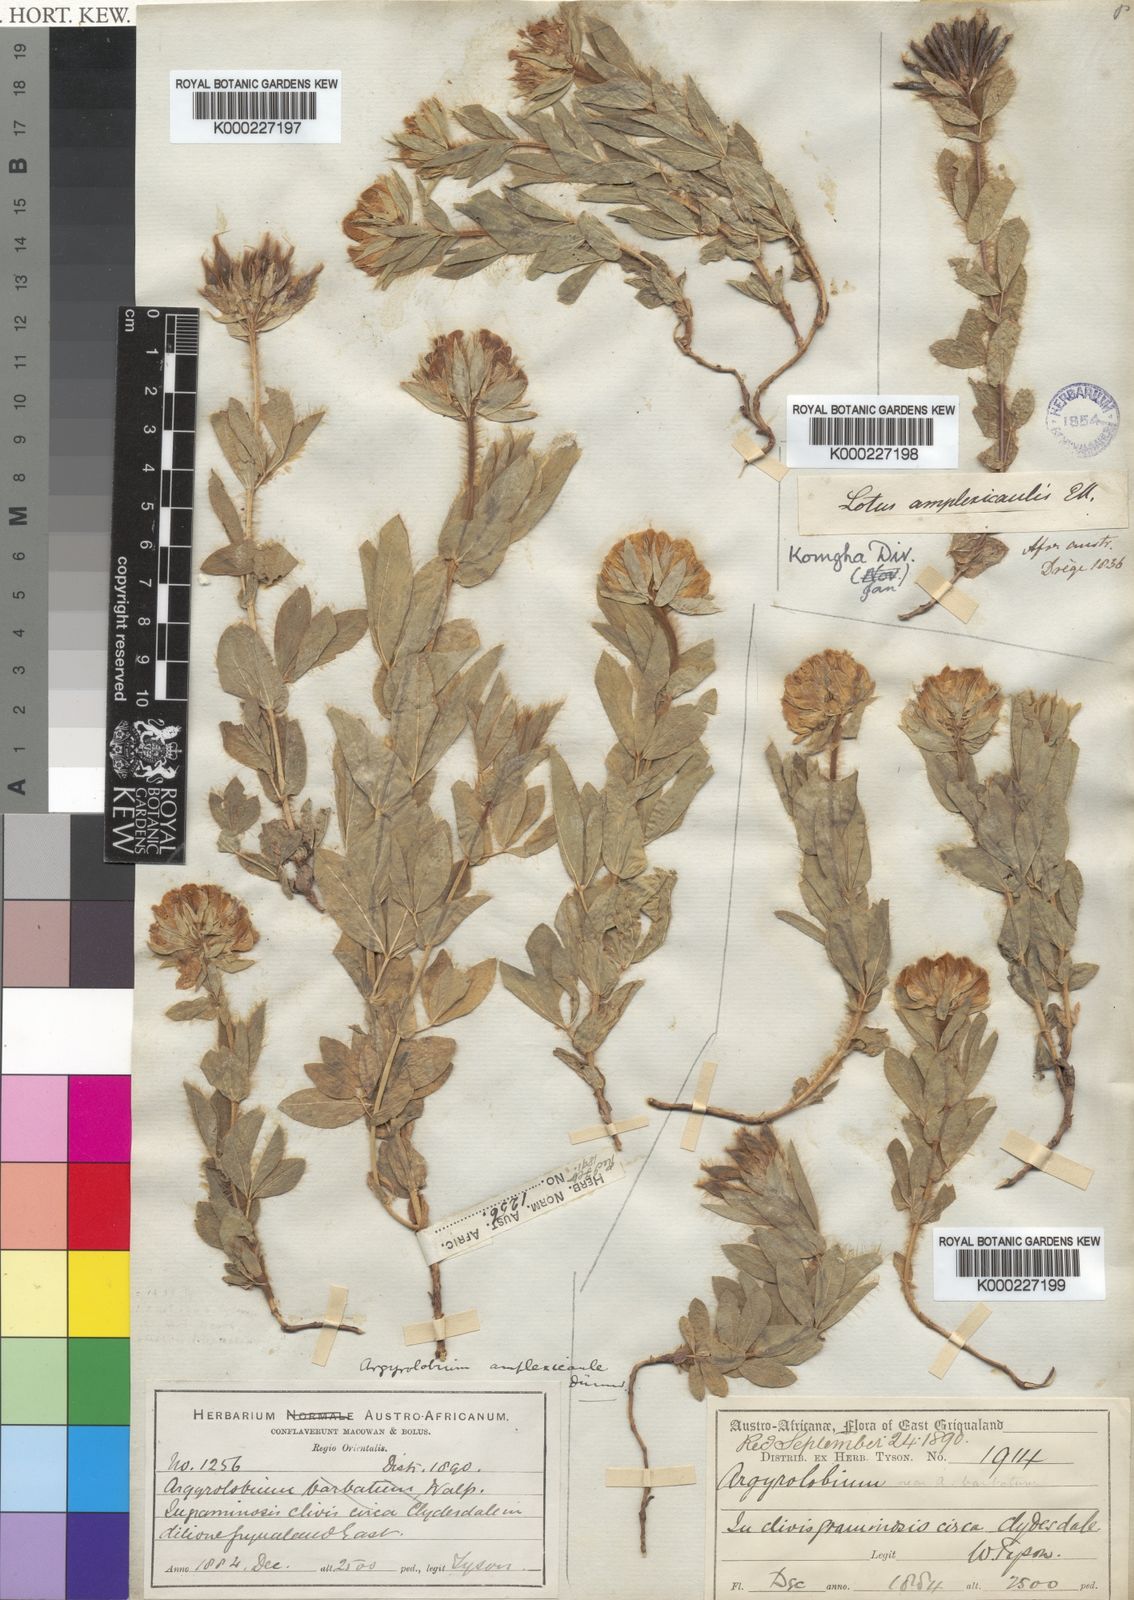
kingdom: Plantae
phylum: Tracheophyta
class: Magnoliopsida
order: Fabales
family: Fabaceae
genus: Argyrolobium
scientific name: Argyrolobium amplexicaule
